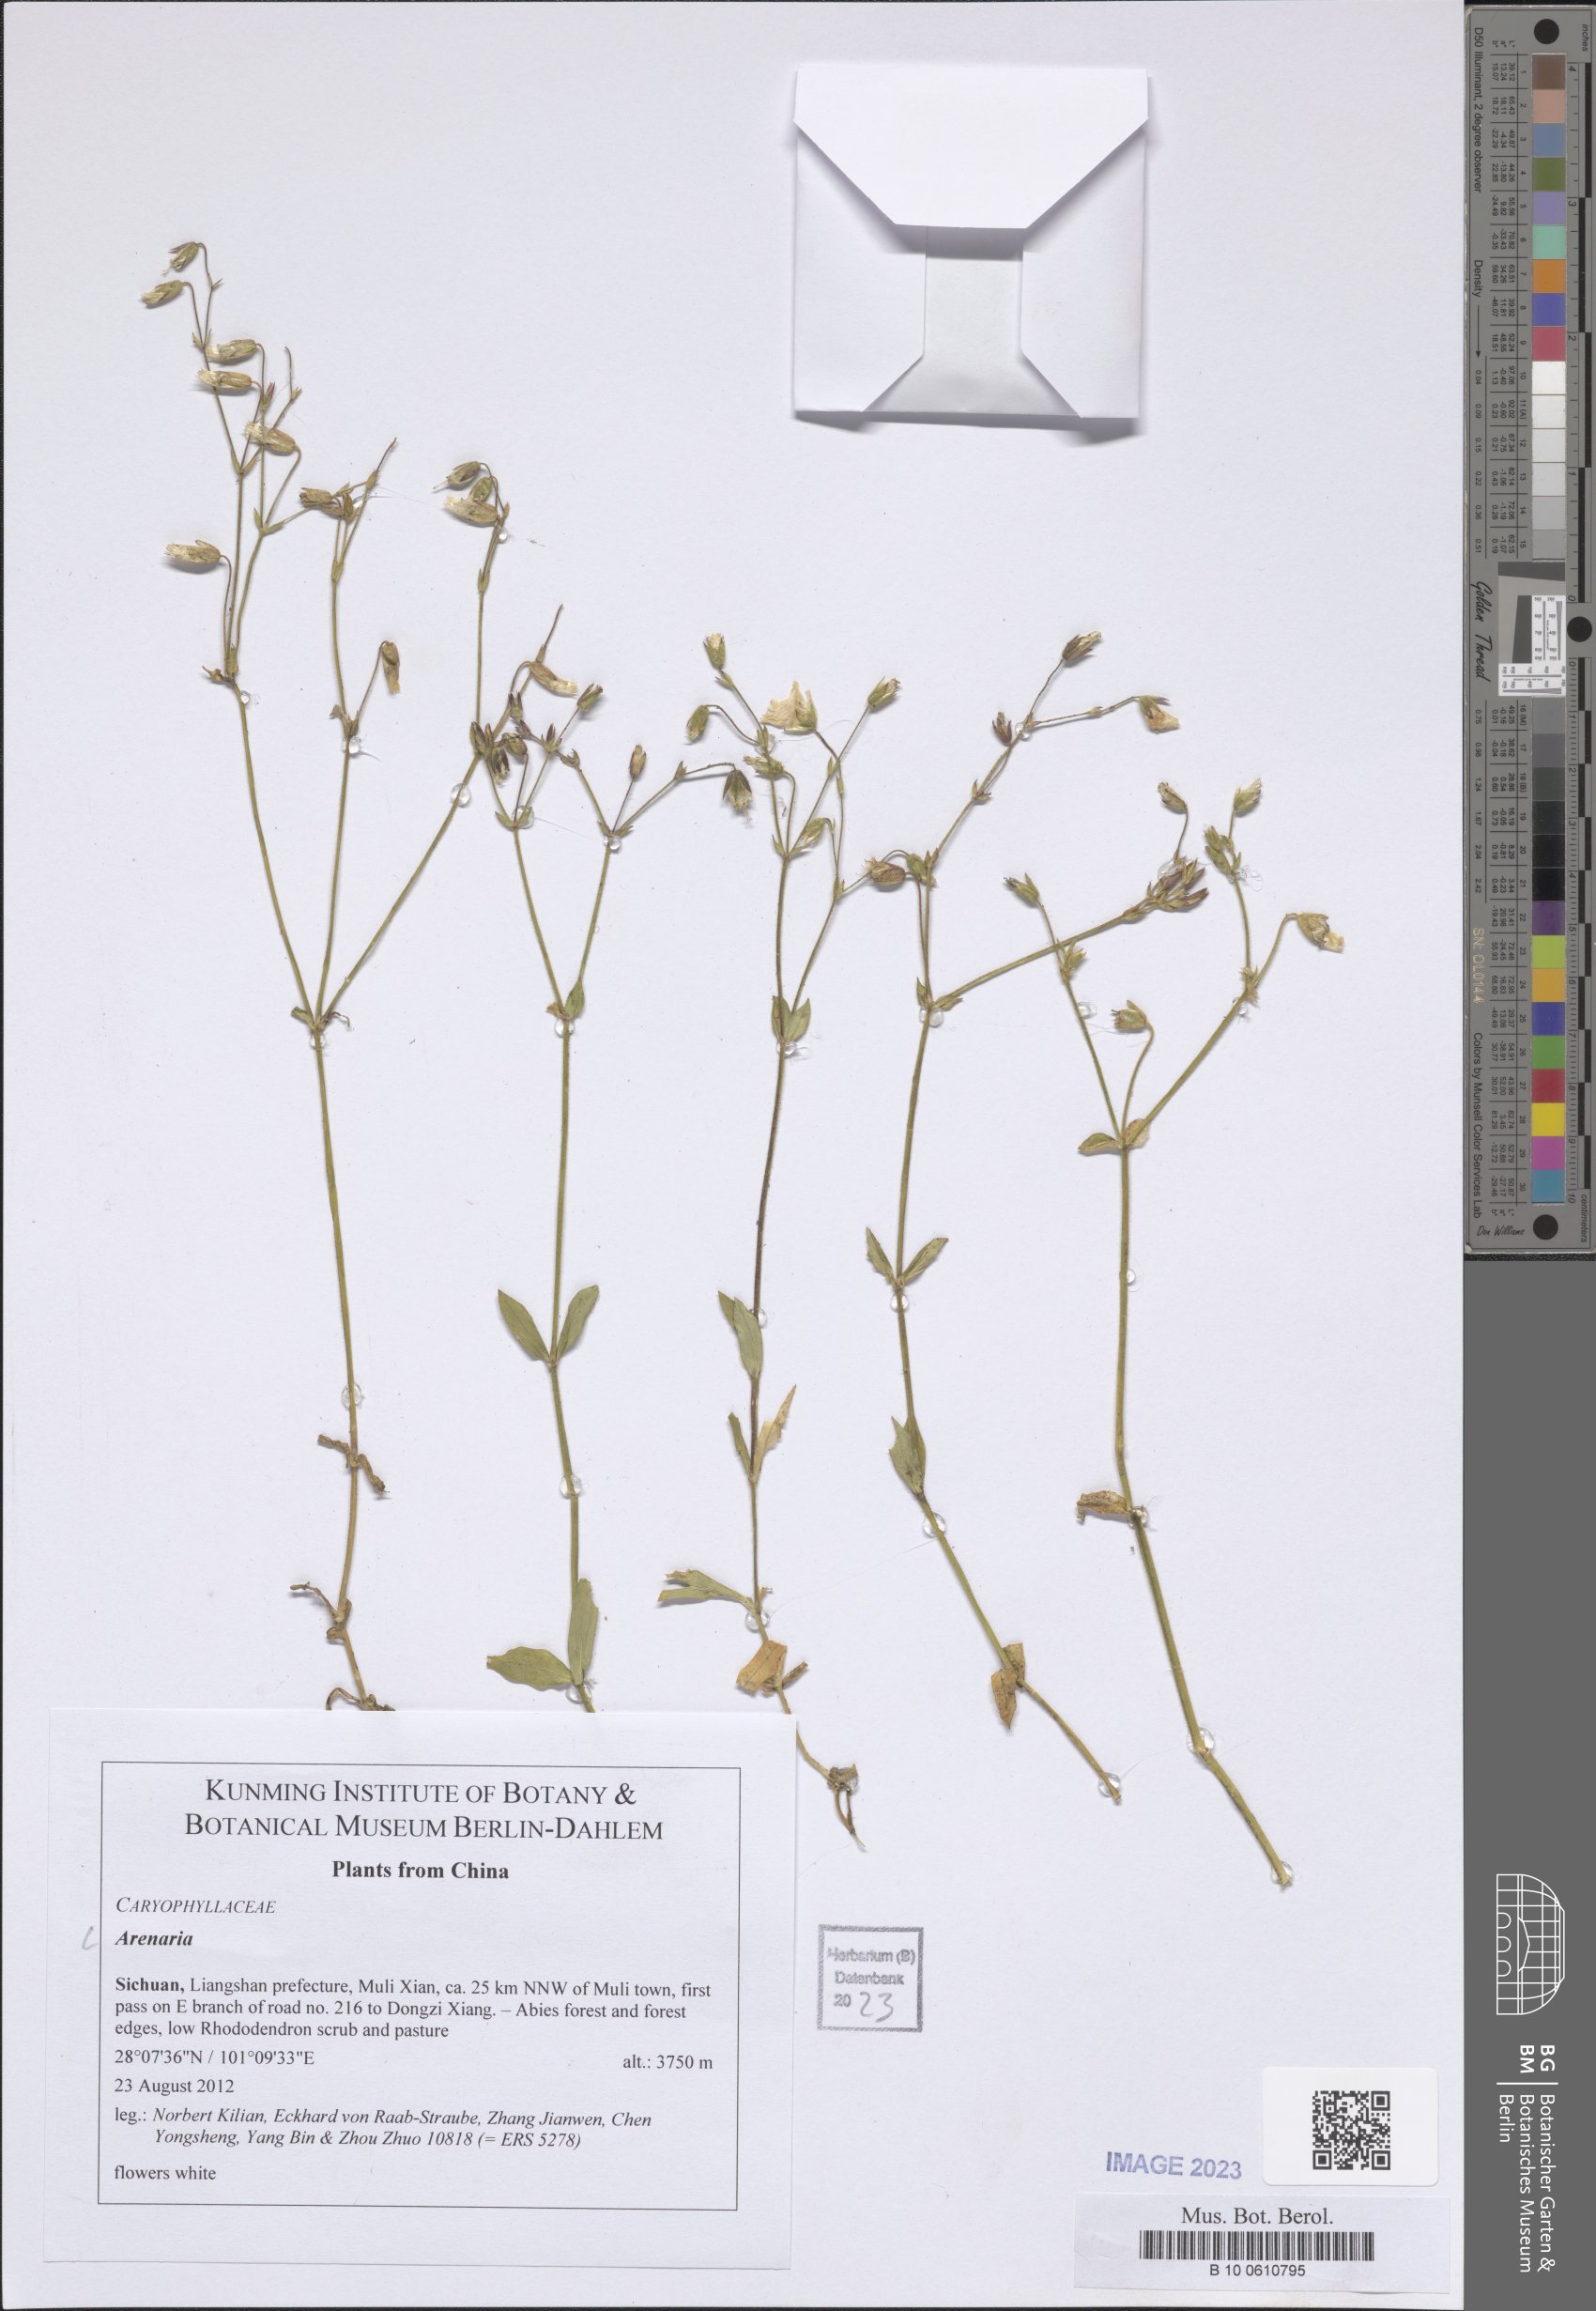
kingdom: Plantae
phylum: Tracheophyta
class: Magnoliopsida
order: Caryophyllales
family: Caryophyllaceae
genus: Arenaria
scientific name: Arenaria
